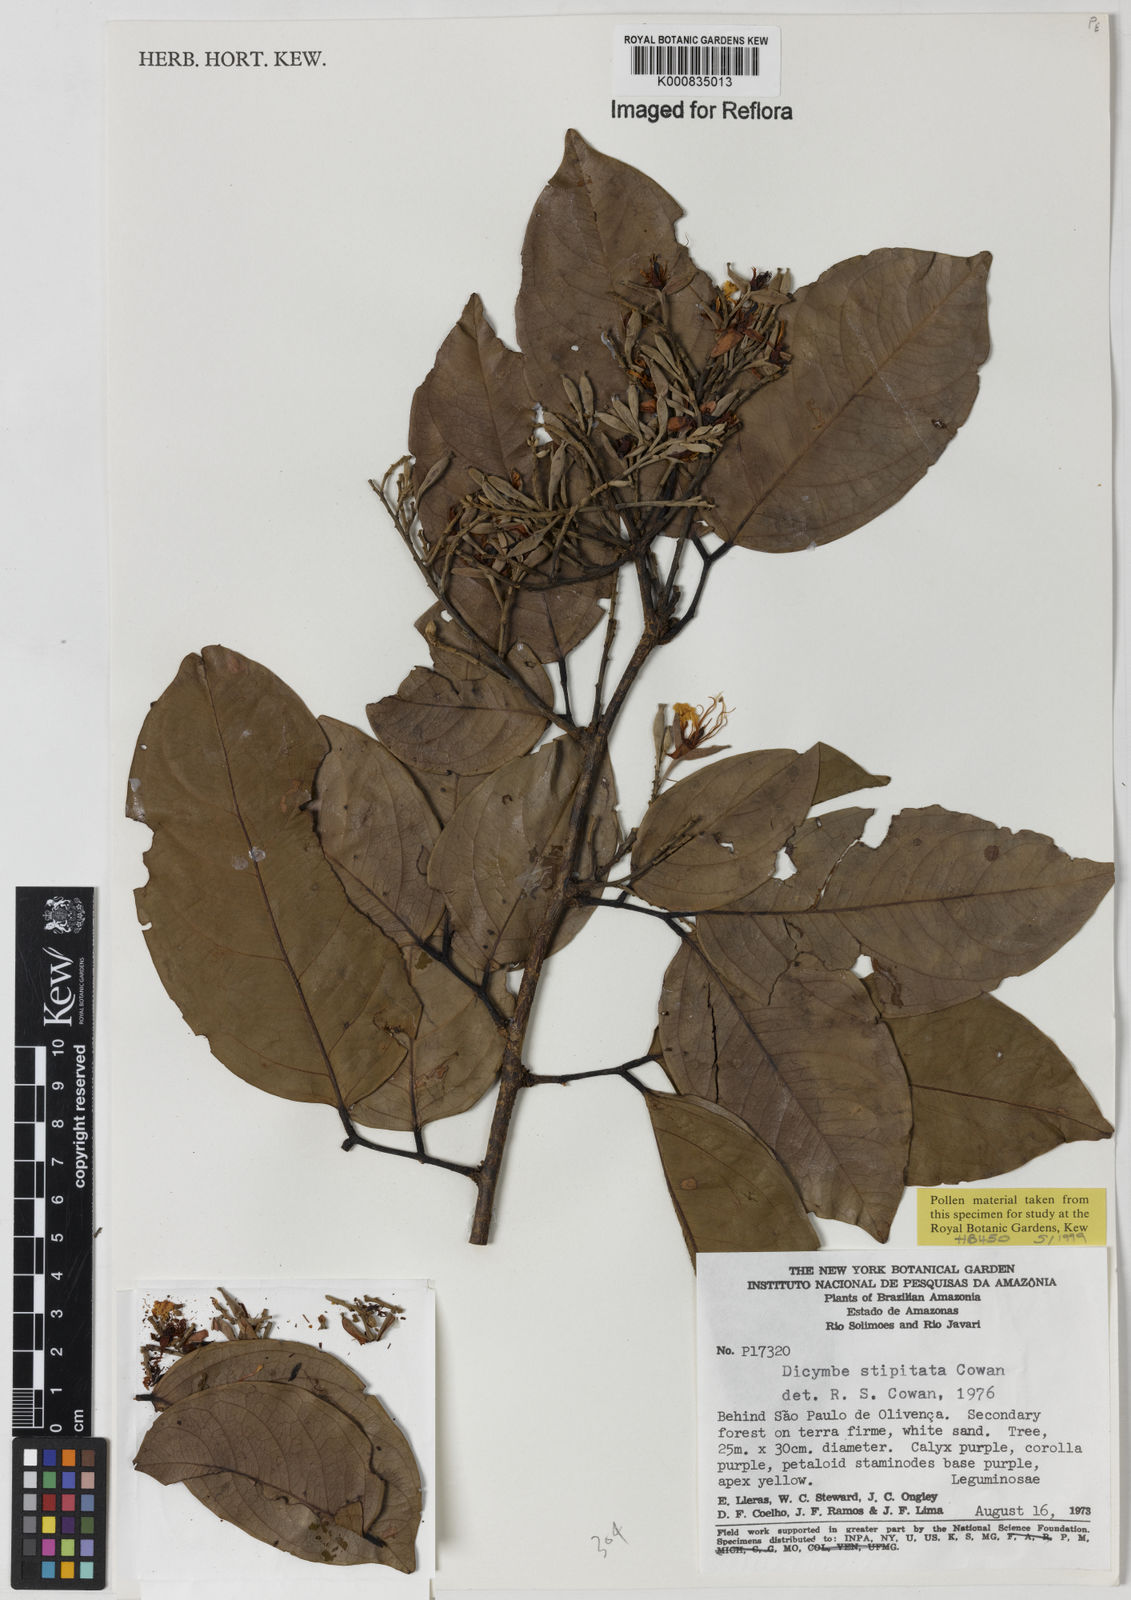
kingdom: Plantae
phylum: Tracheophyta
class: Magnoliopsida
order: Fabales
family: Fabaceae
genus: Dicymbe
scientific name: Dicymbe stipitata
